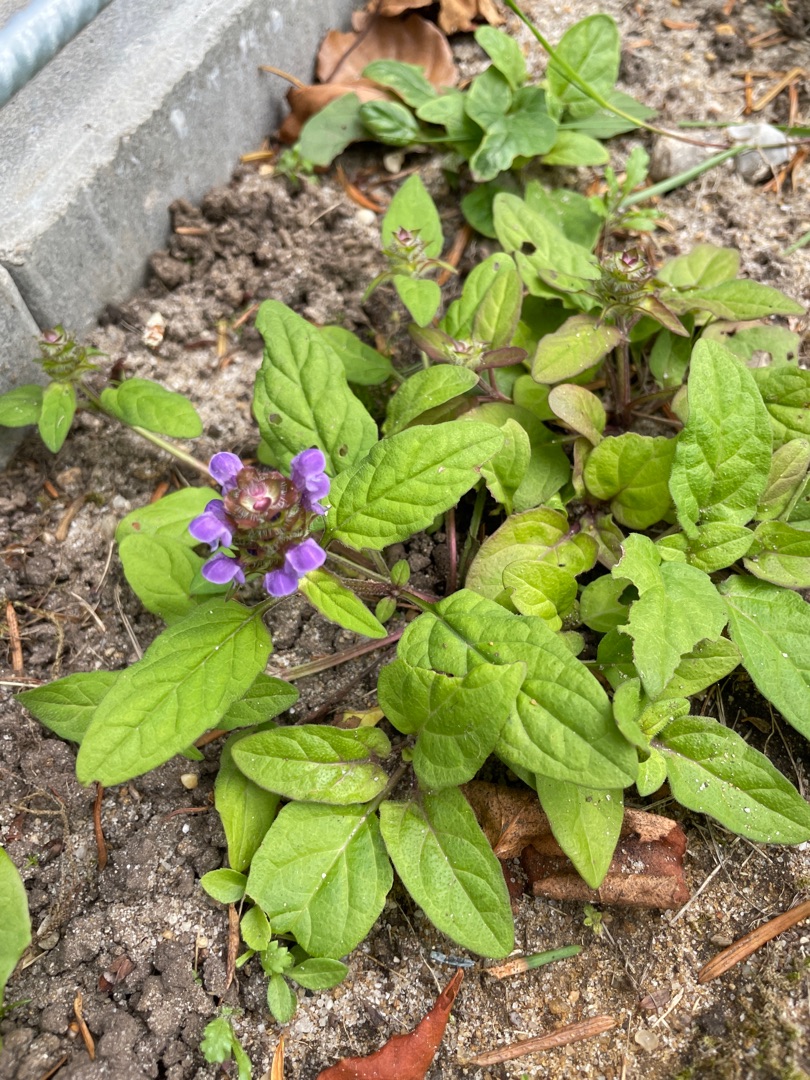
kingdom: Plantae
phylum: Tracheophyta
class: Magnoliopsida
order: Lamiales
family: Lamiaceae
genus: Prunella
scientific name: Prunella vulgaris
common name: Almindelig brunelle
